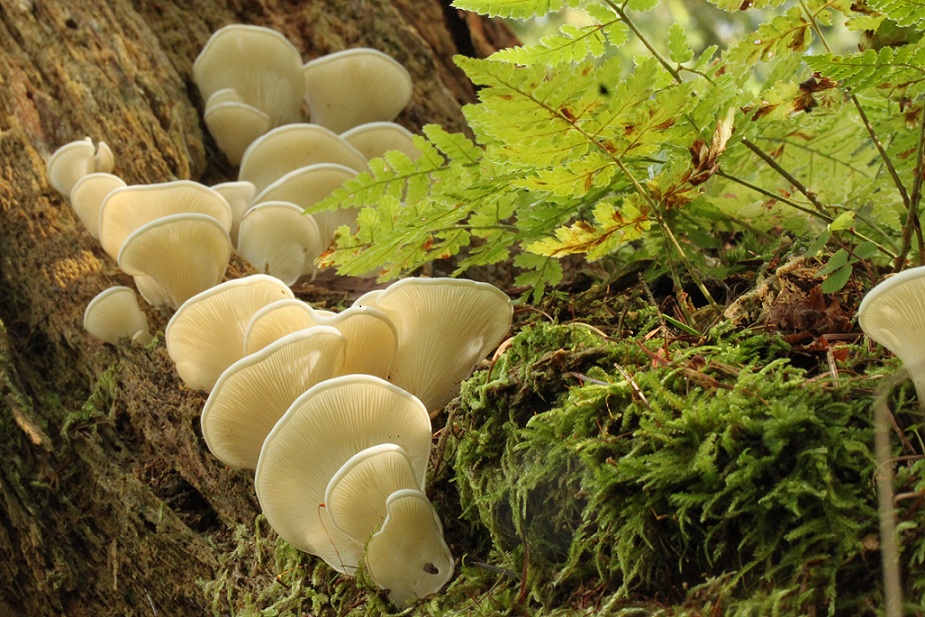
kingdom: Fungi
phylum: Basidiomycota
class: Agaricomycetes
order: Agaricales
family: Marasmiaceae
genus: Pleurocybella
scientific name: Pleurocybella porrigens
